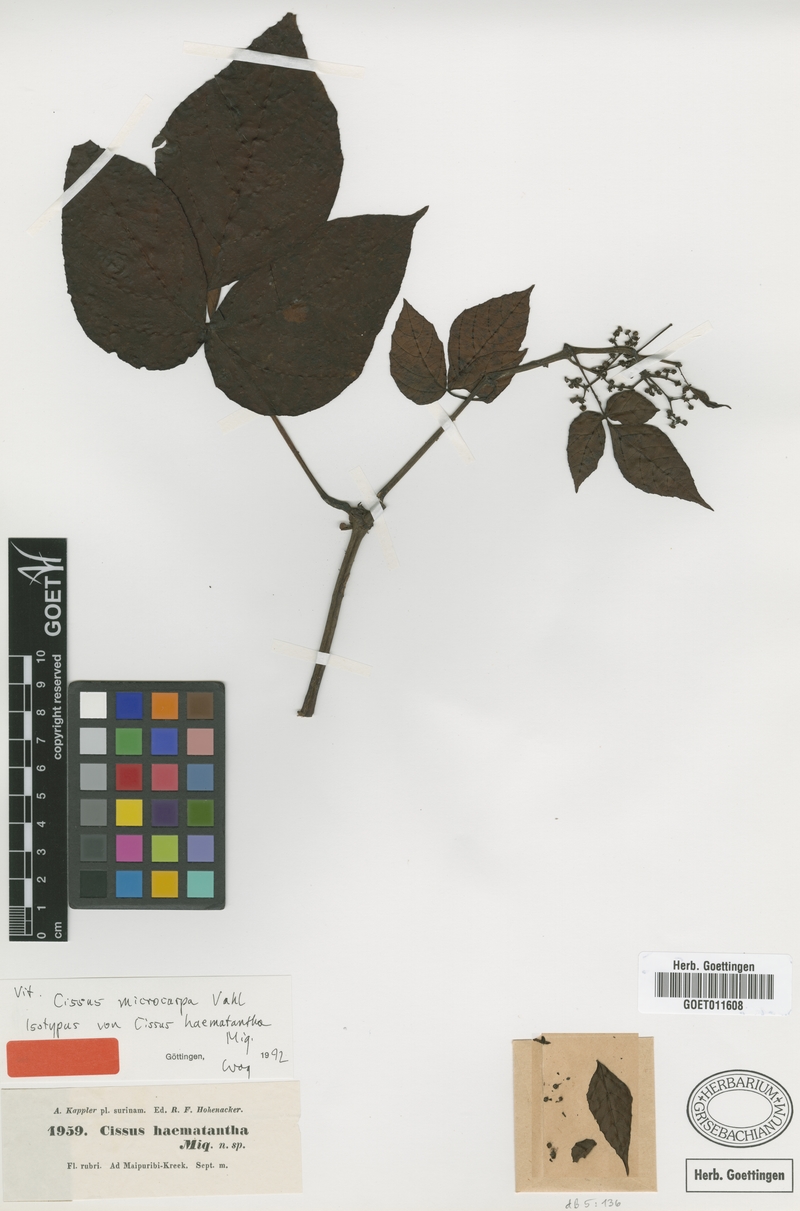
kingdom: Plantae
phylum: Tracheophyta
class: Magnoliopsida
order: Vitales
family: Vitaceae
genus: Cissus
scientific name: Cissus microcarpa
